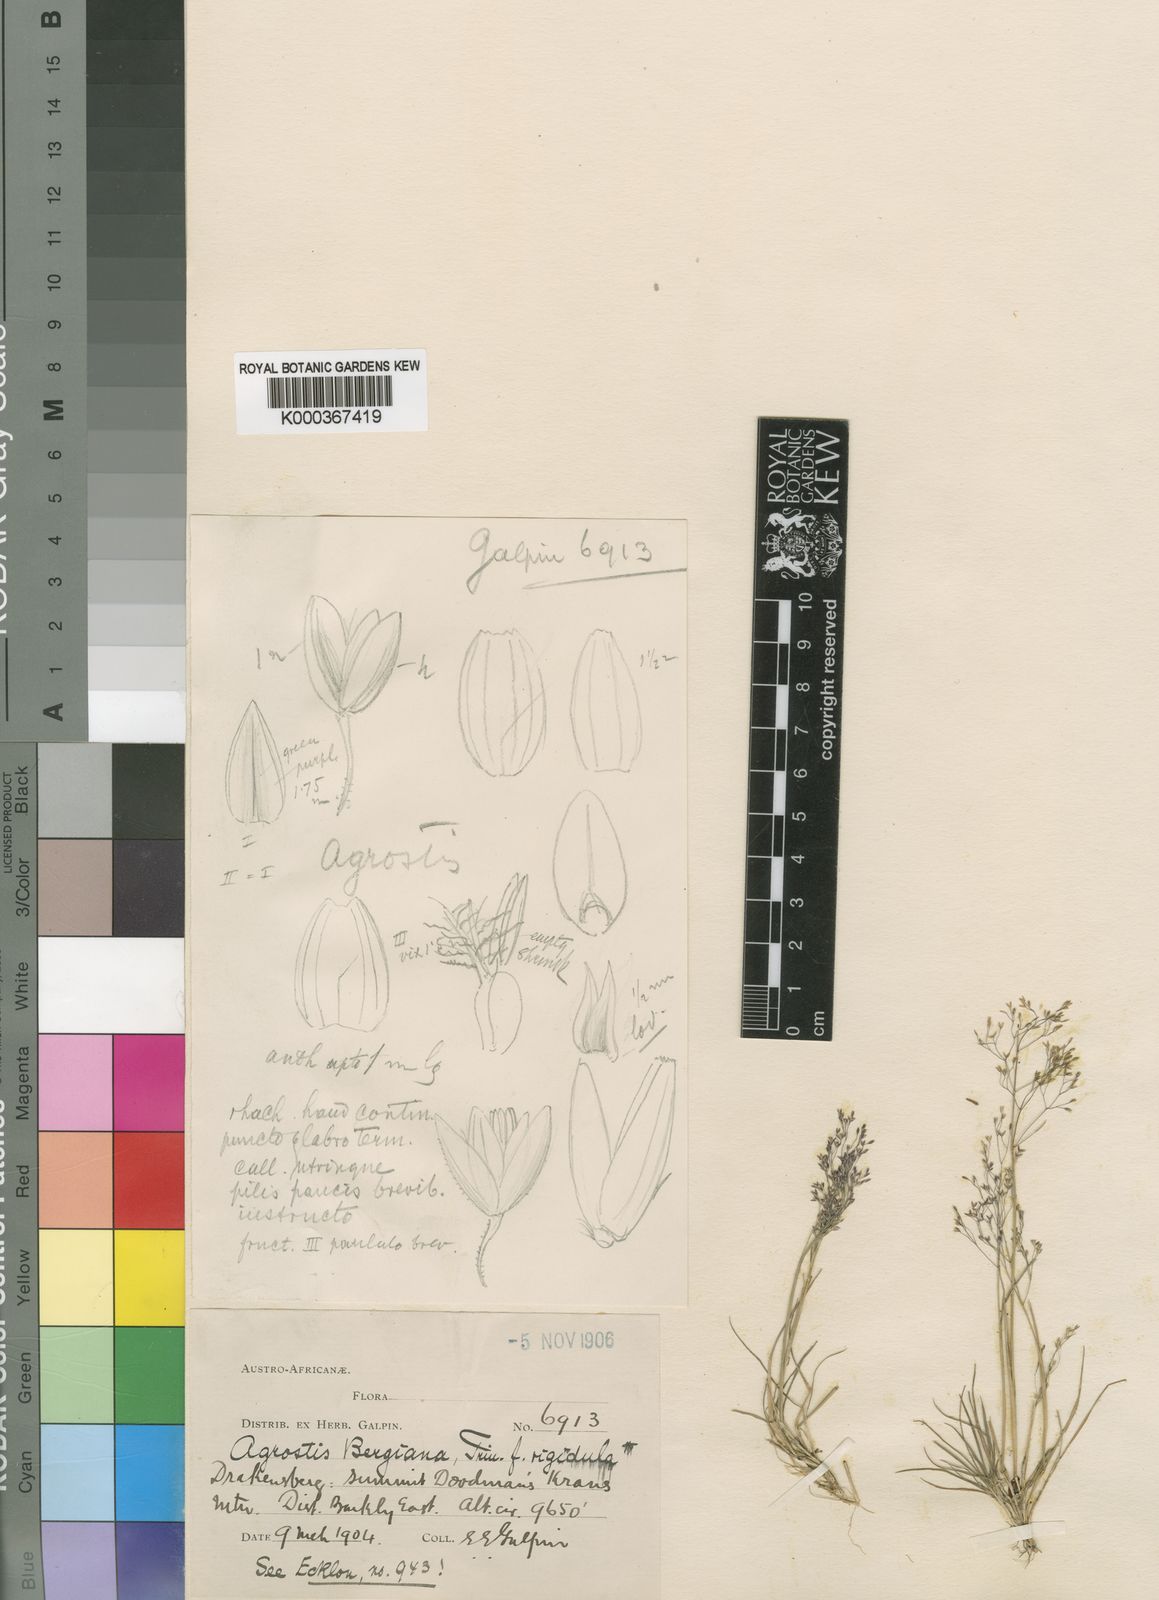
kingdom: Plantae
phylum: Tracheophyta
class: Liliopsida
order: Poales
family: Poaceae
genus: Agrostis
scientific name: Agrostis bergiana
